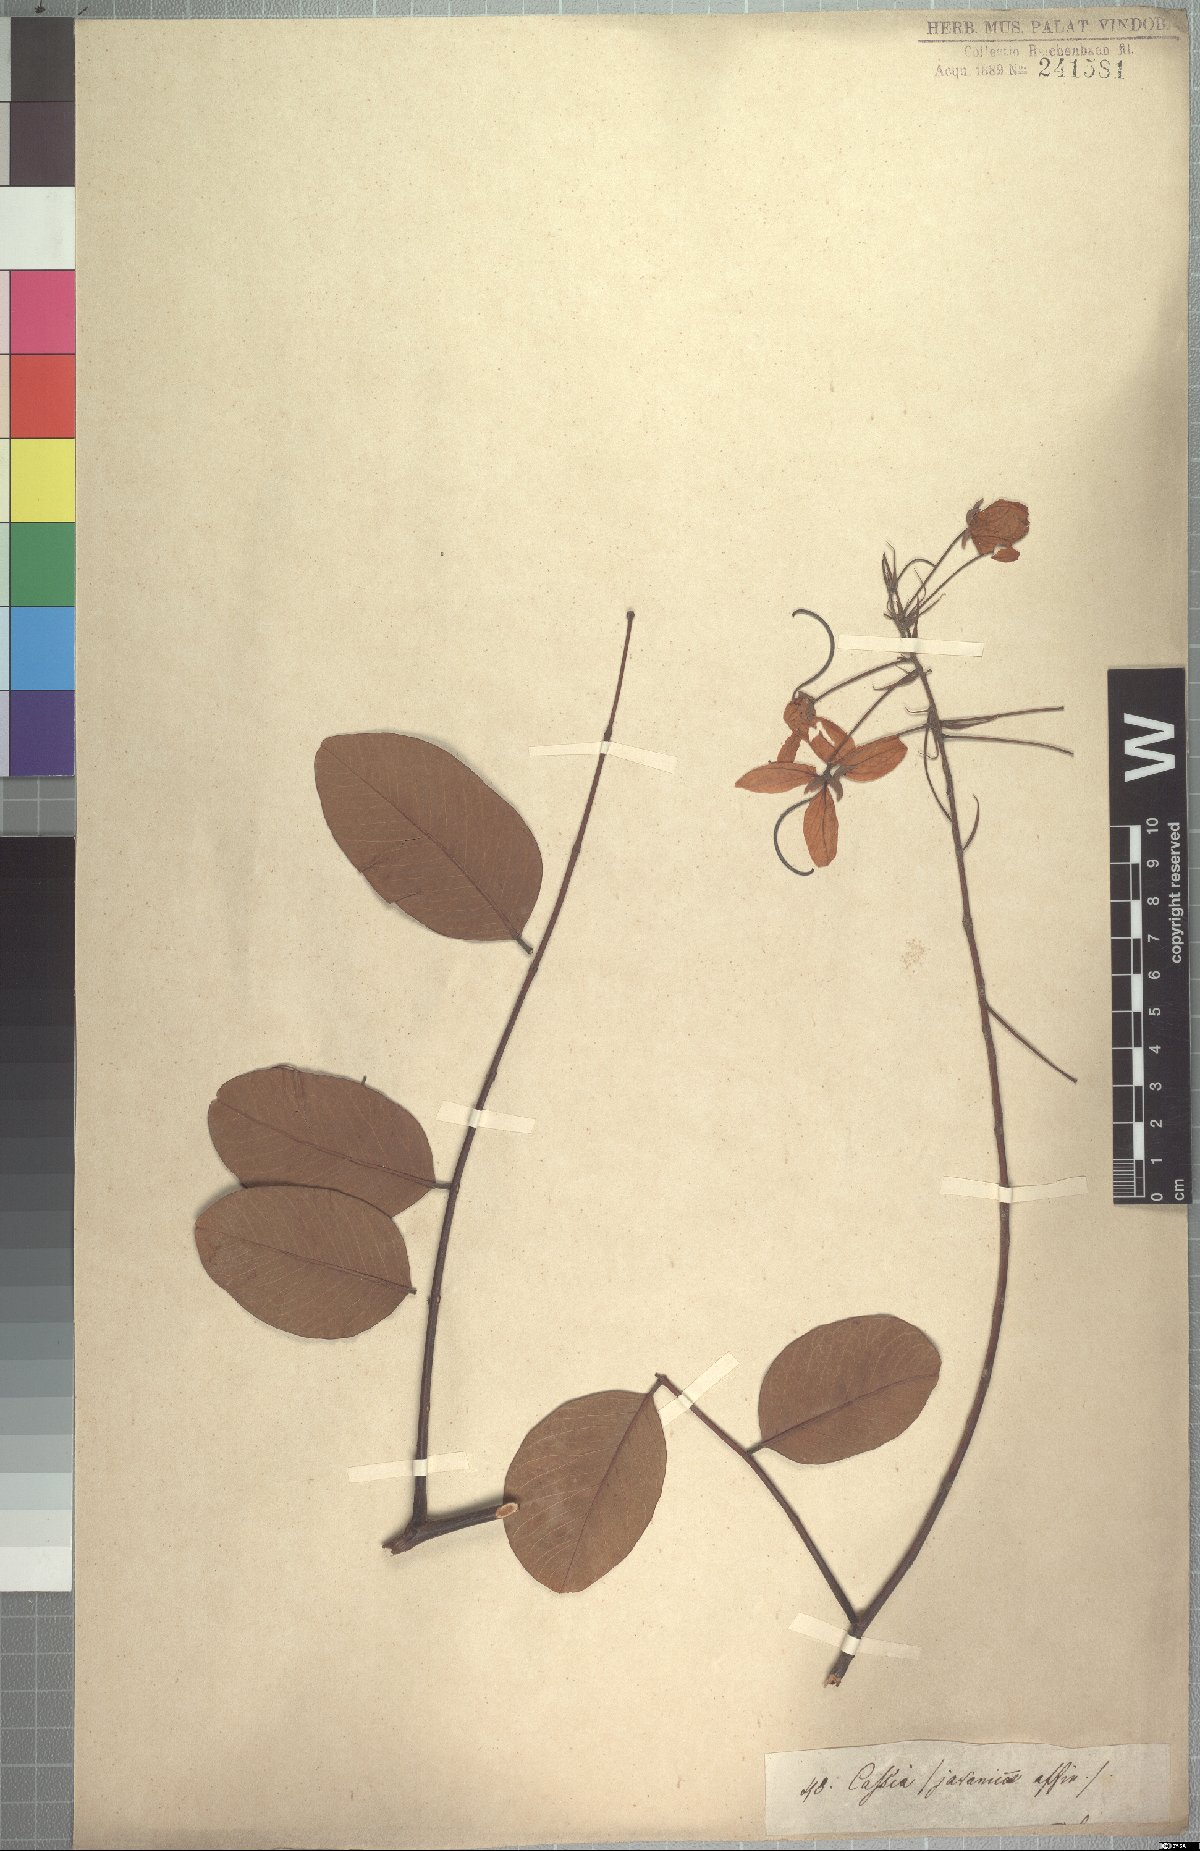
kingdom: Plantae
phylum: Tracheophyta
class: Magnoliopsida
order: Fabales
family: Fabaceae
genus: Cassia
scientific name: Cassia sieberiana
